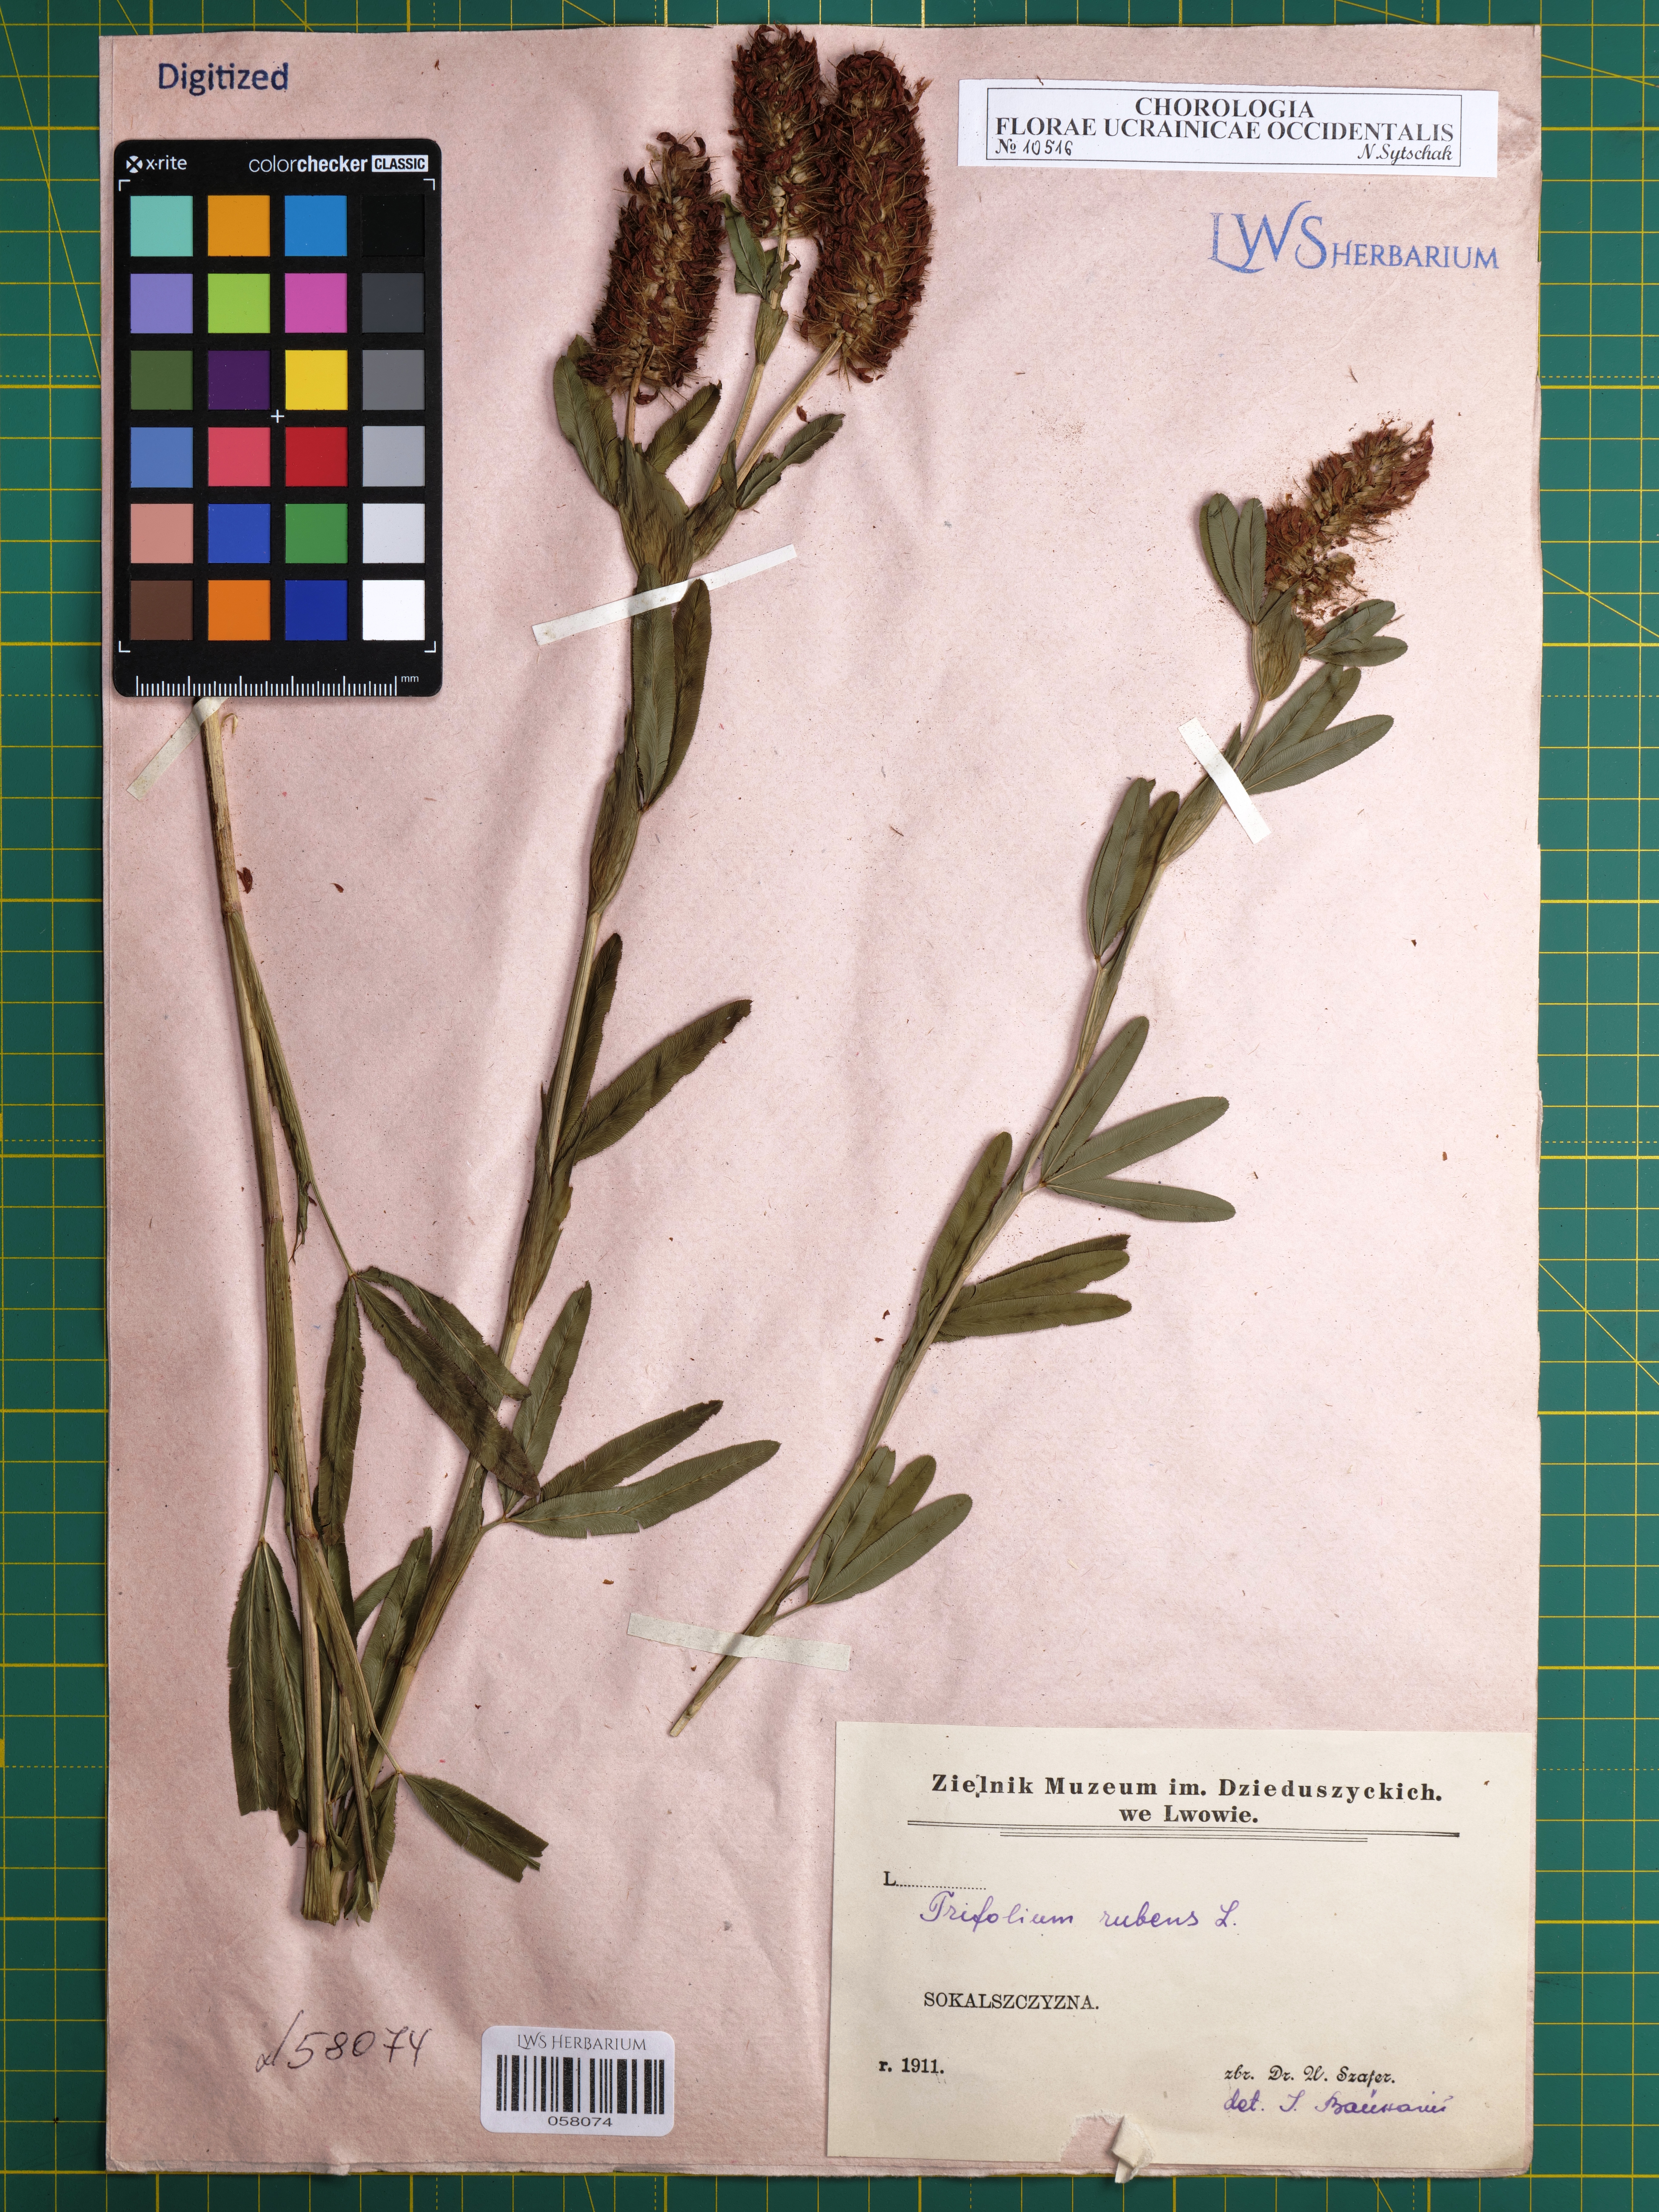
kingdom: Plantae
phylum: Tracheophyta
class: Magnoliopsida
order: Fabales
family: Fabaceae
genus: Trifolium
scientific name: Trifolium rubens
